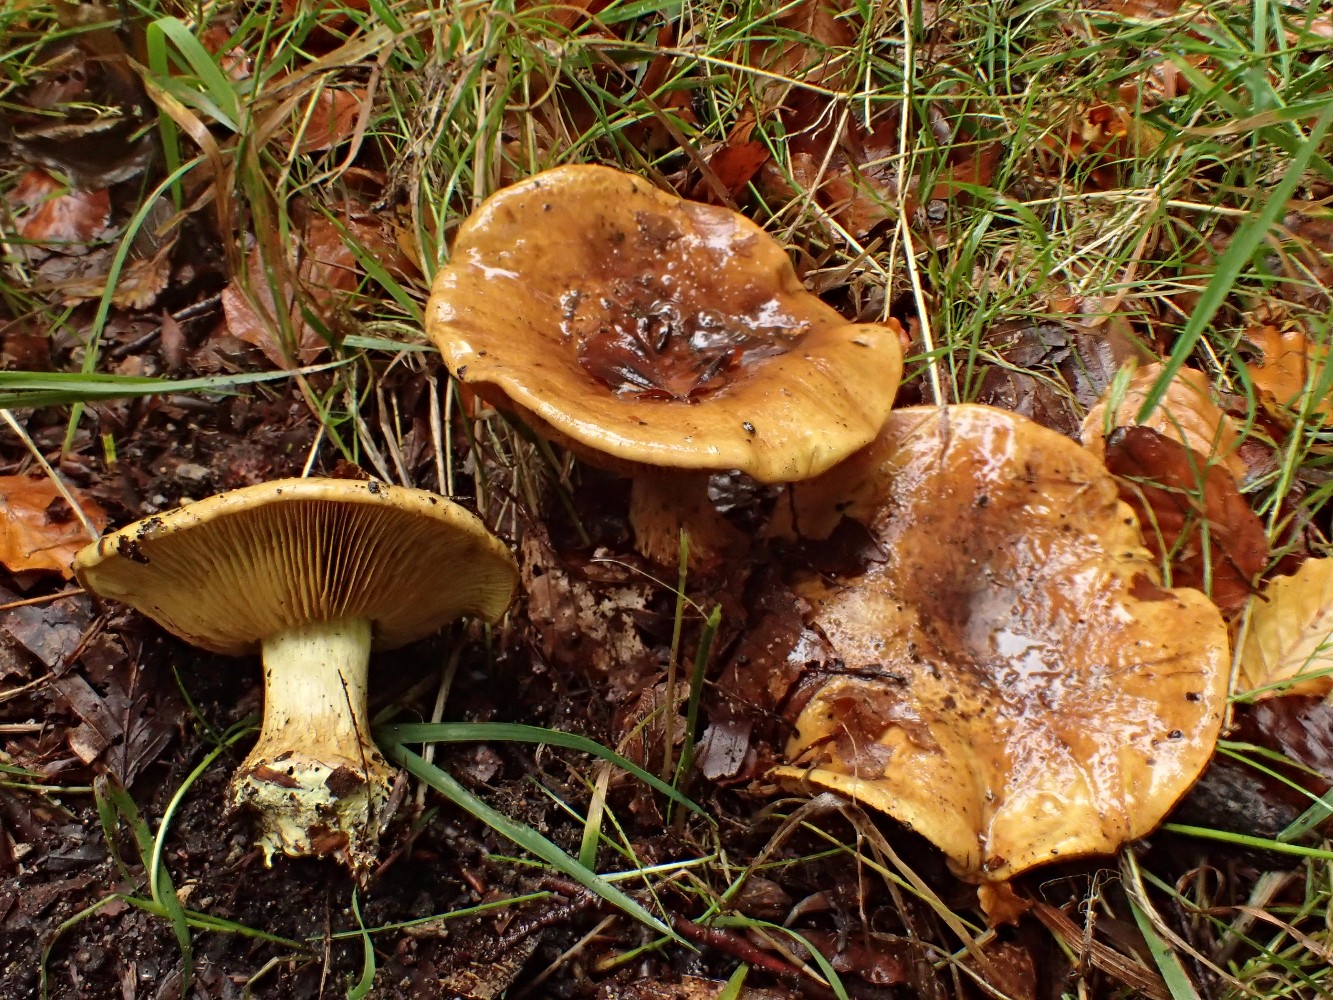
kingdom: Fungi
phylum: Basidiomycota
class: Agaricomycetes
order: Agaricales
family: Cortinariaceae
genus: Calonarius
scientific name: Calonarius citrinus
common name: citrongul slørhat
